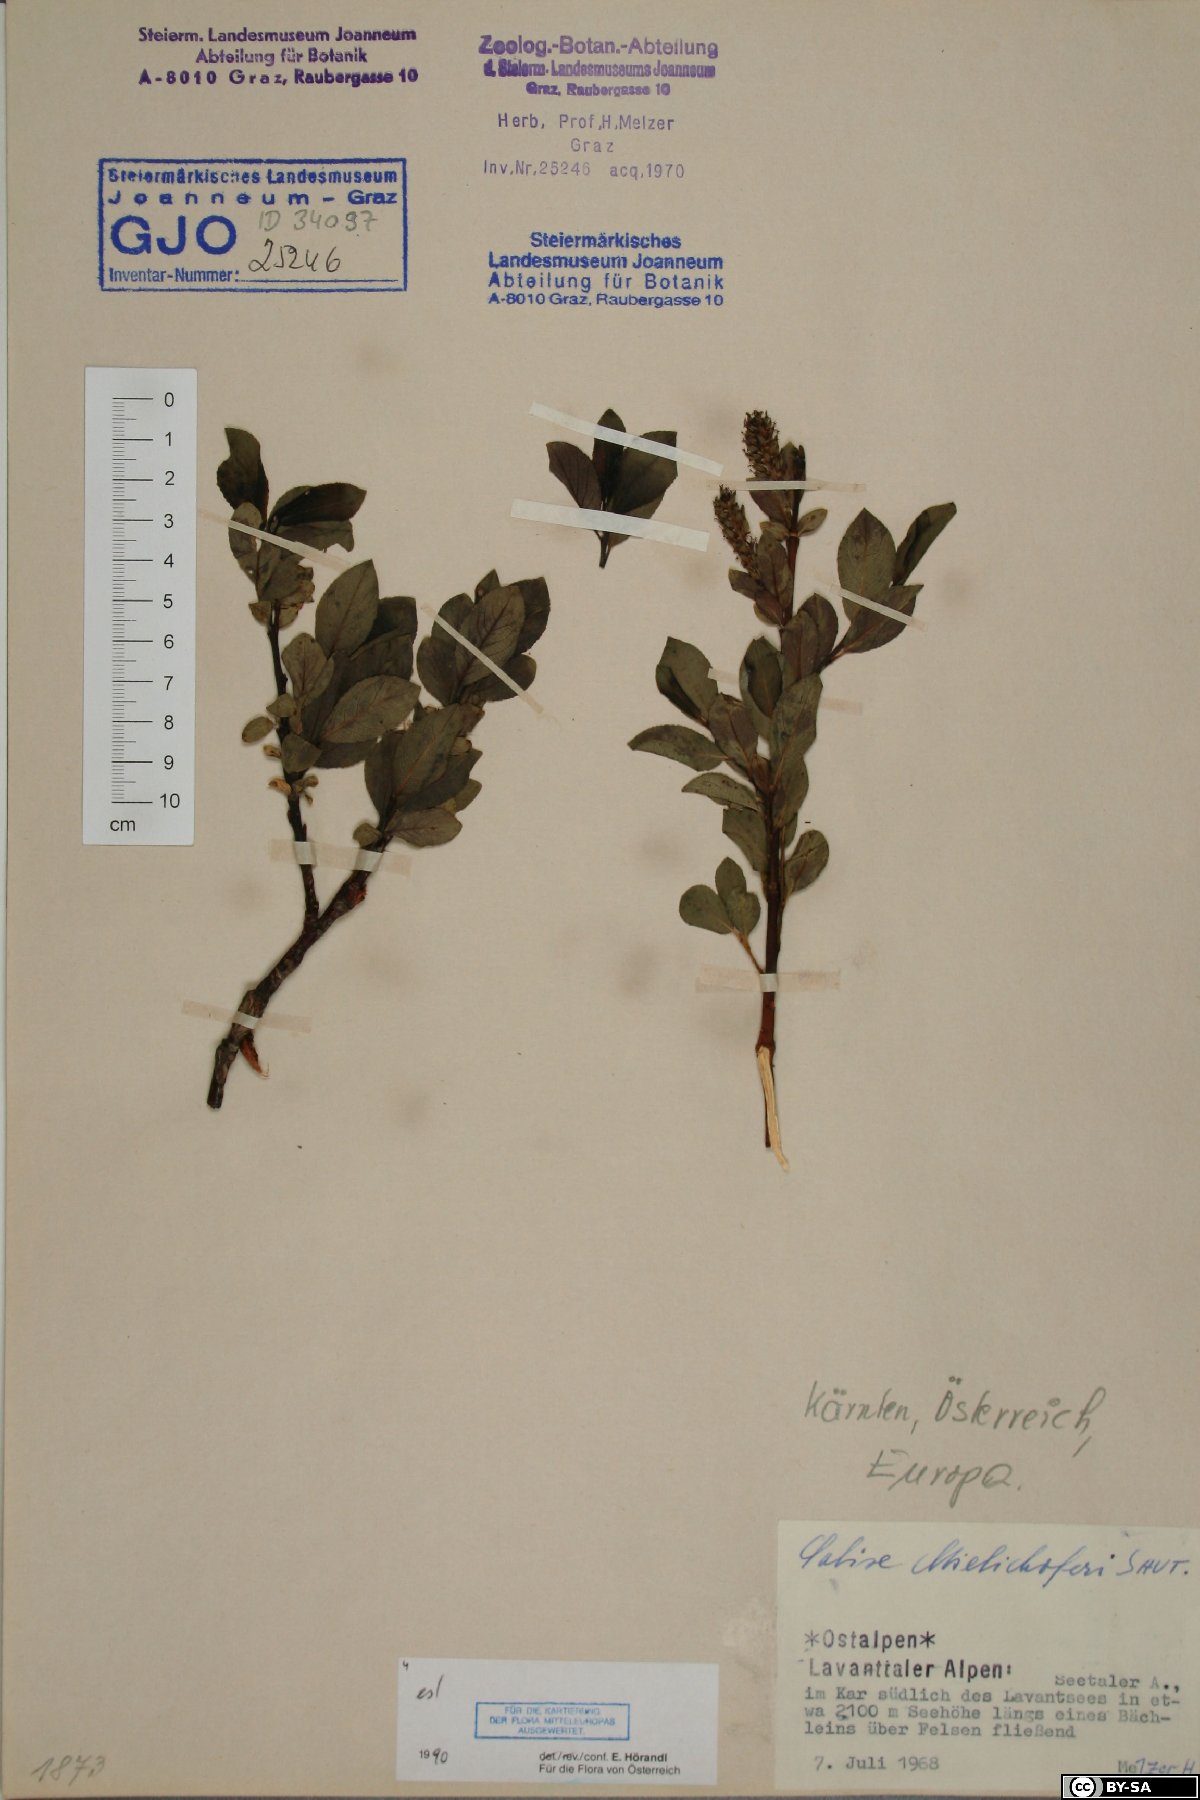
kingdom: Plantae
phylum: Tracheophyta
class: Magnoliopsida
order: Malpighiales
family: Salicaceae
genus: Salix
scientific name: Salix mielichhoferi
